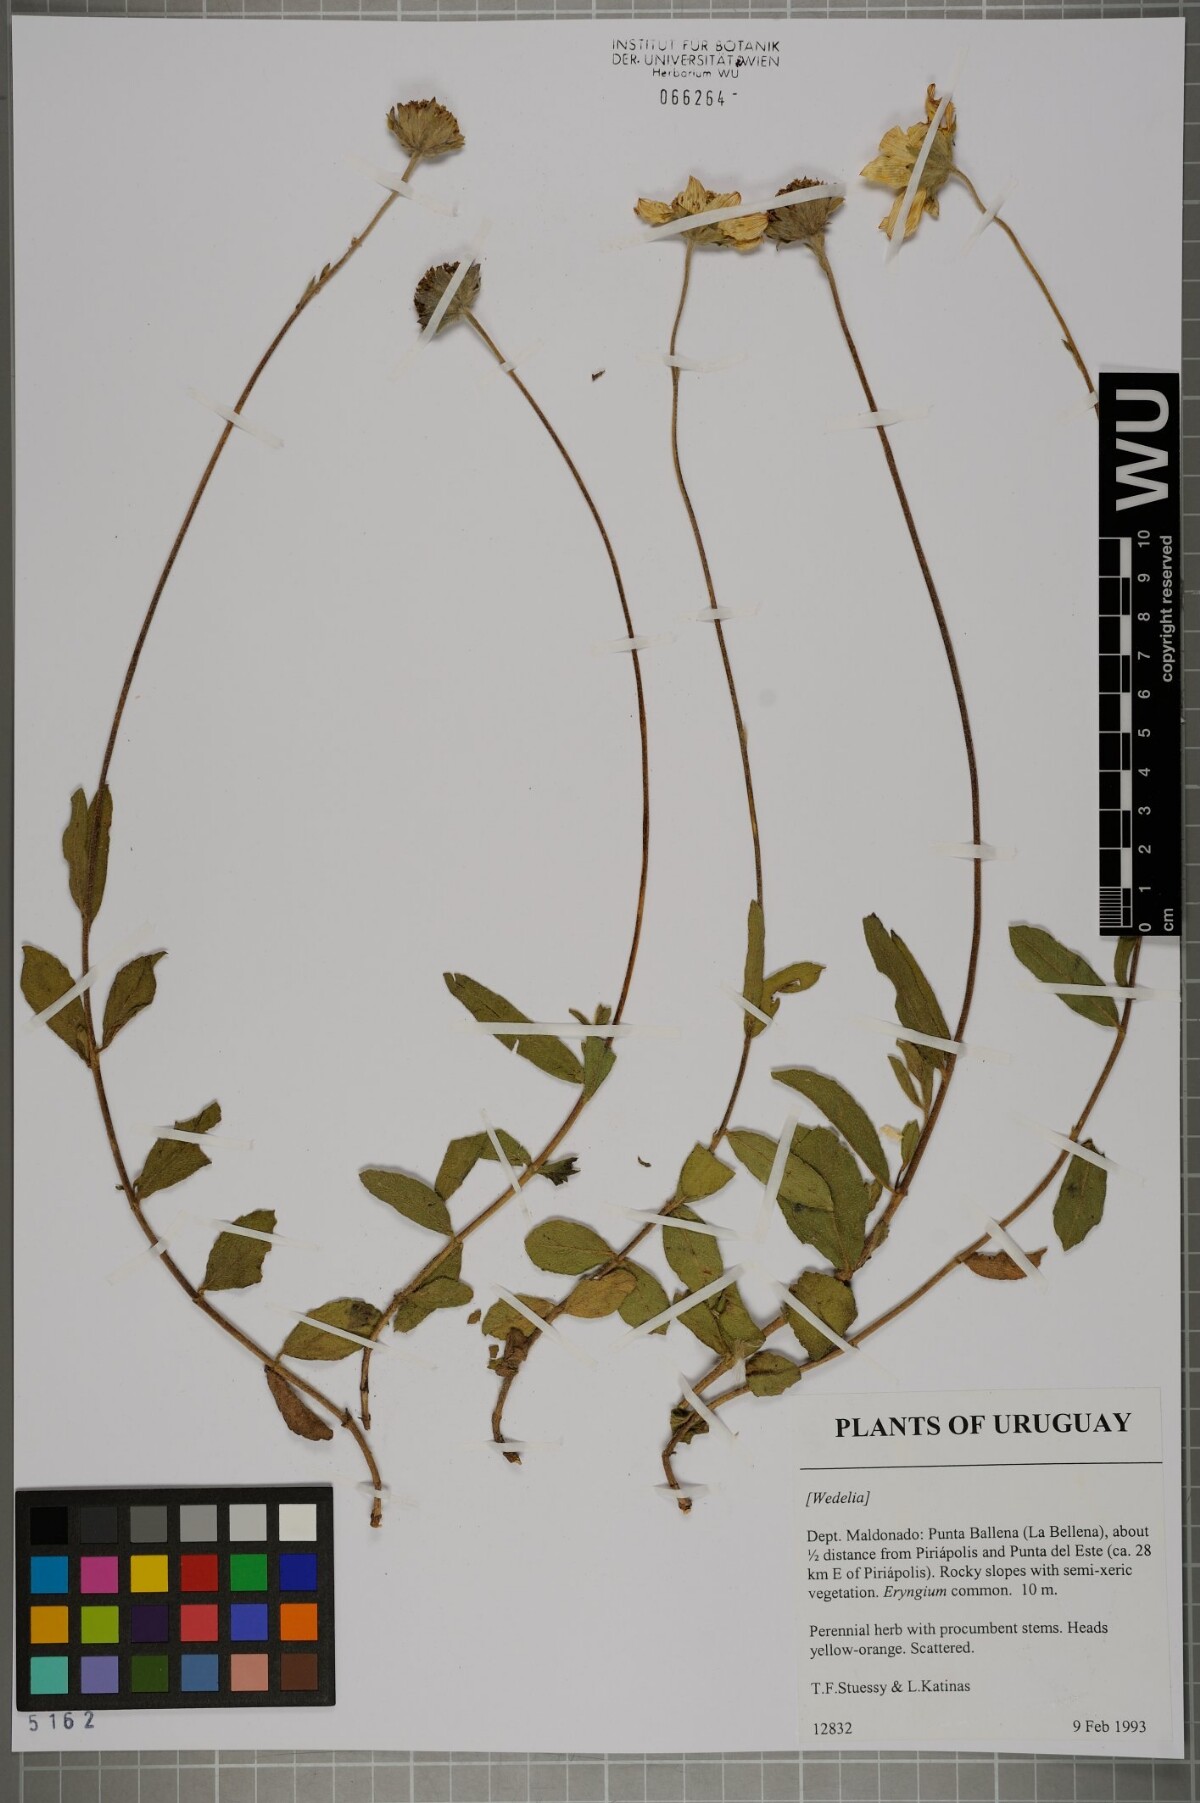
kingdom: Plantae
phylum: Tracheophyta
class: Magnoliopsida
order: Asterales
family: Asteraceae
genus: Wedelia
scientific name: Wedelia
